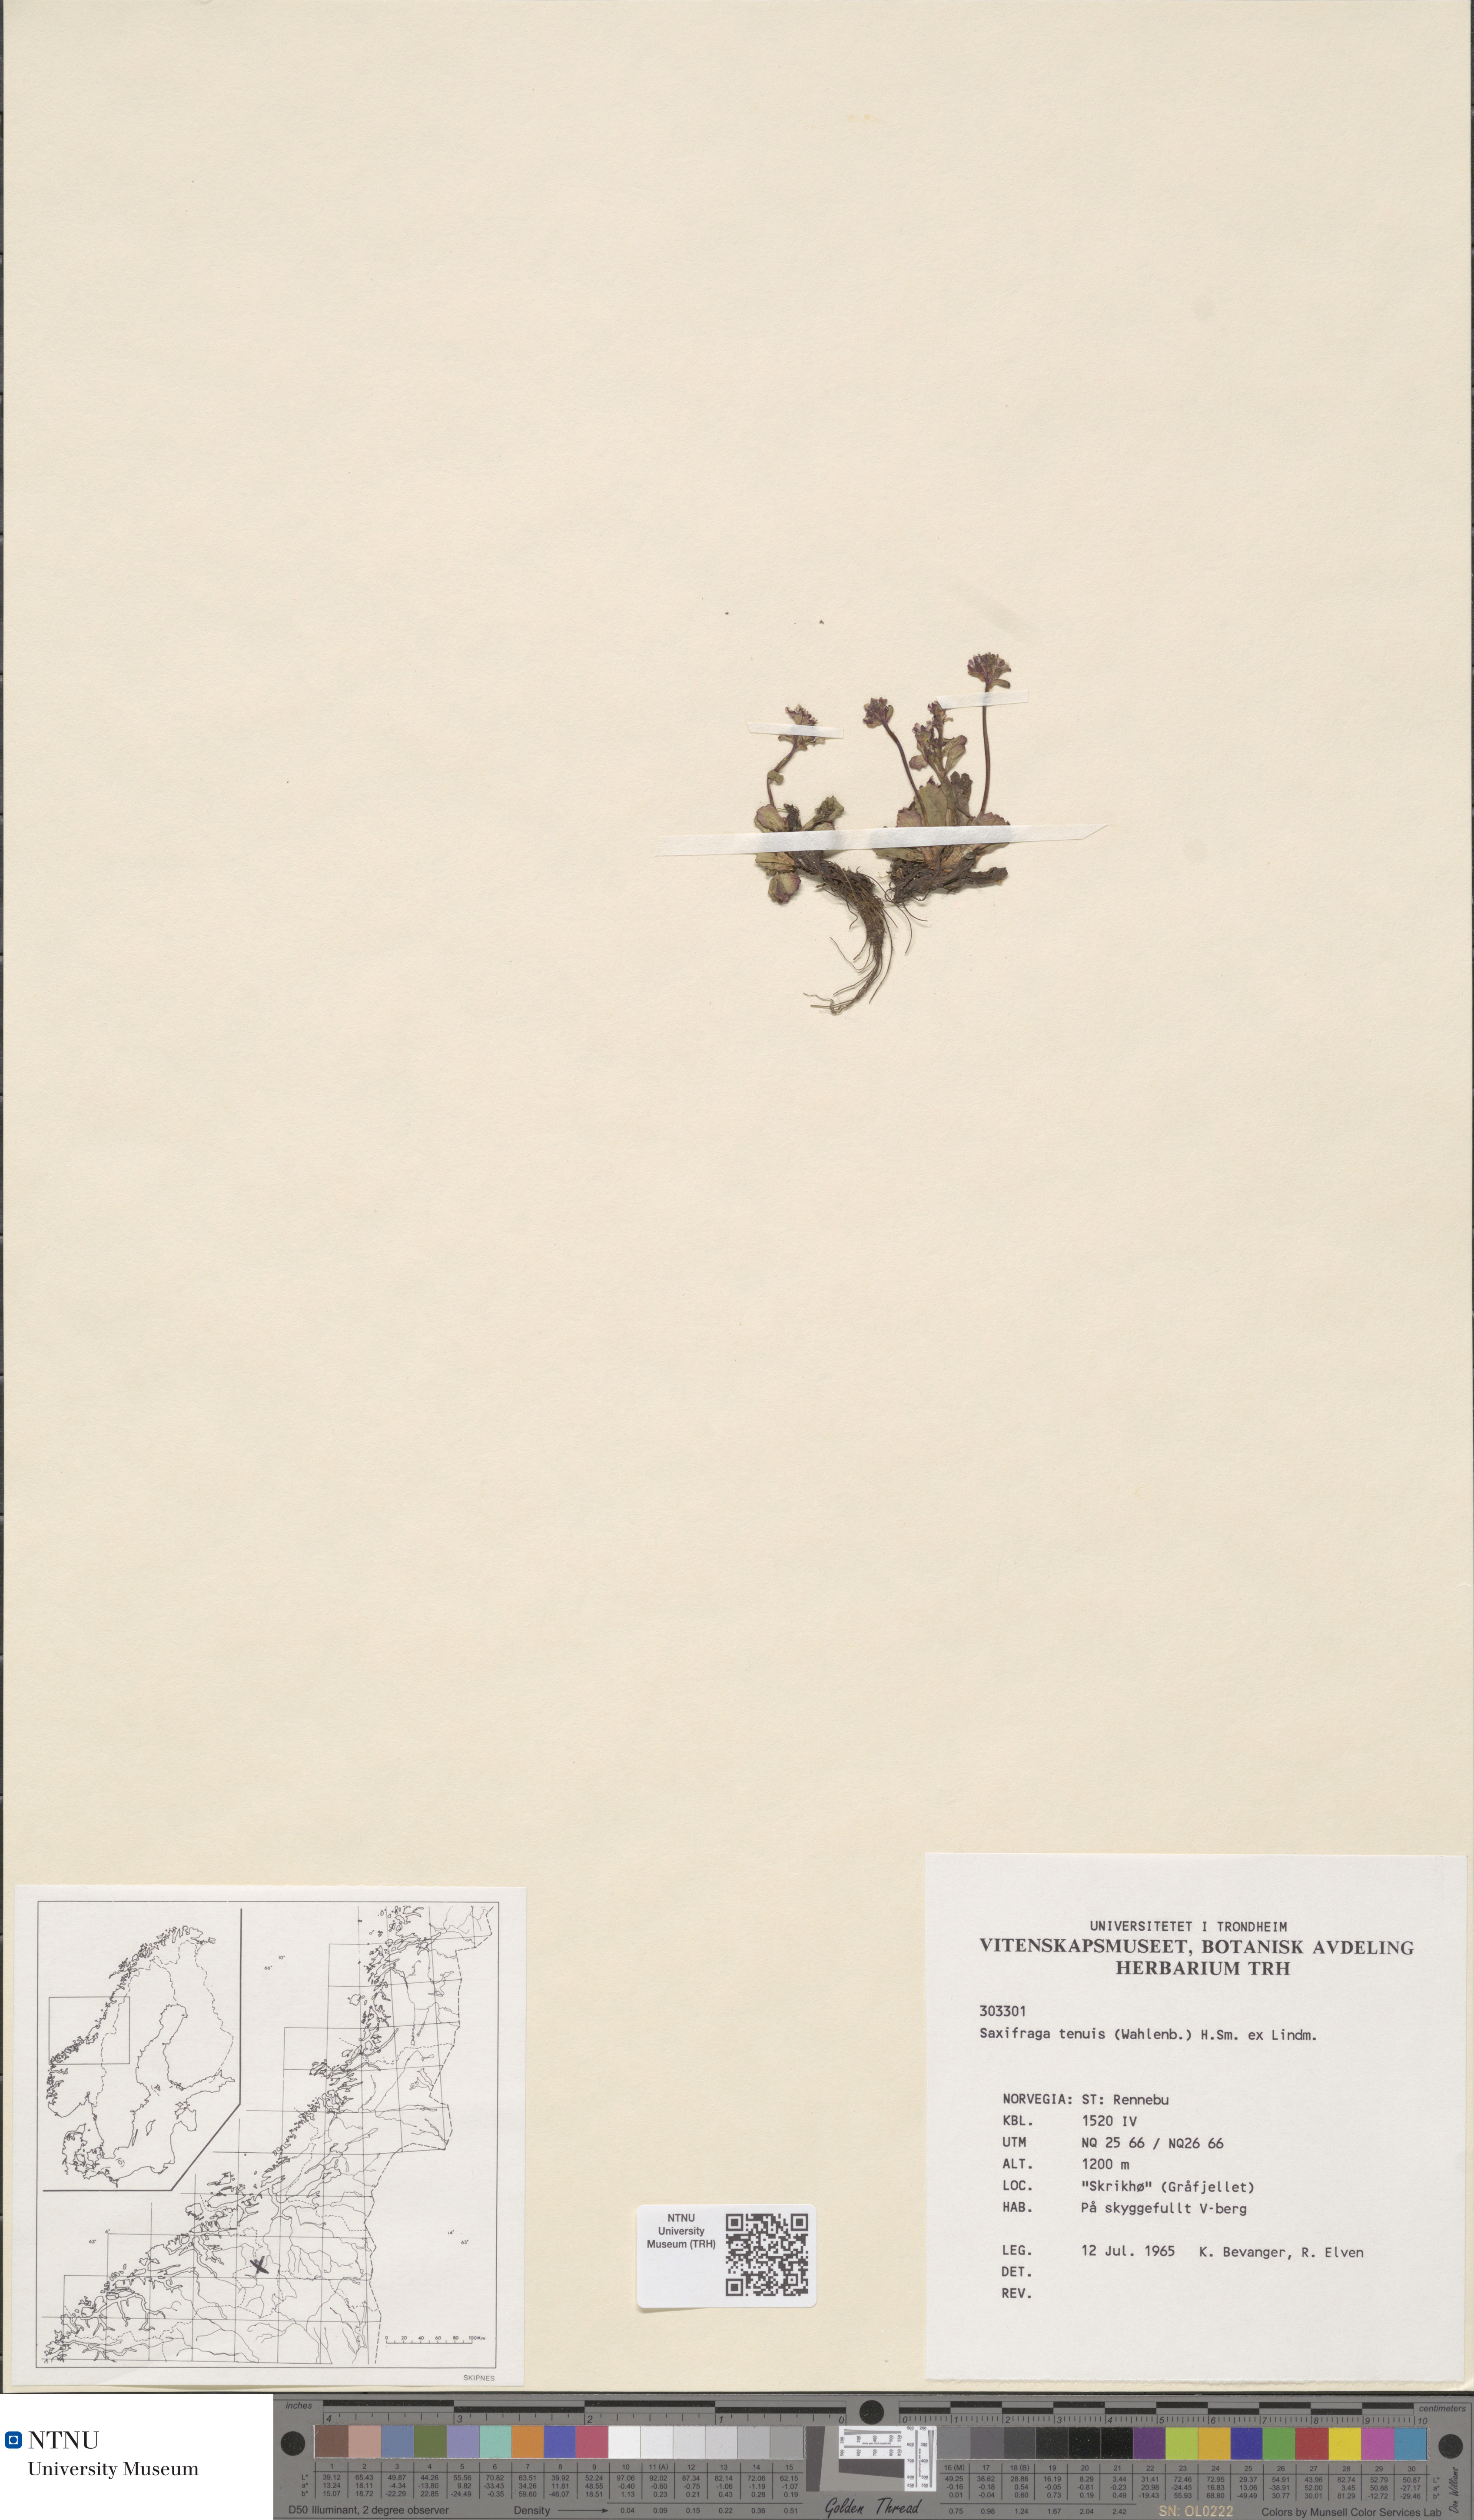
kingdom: Plantae
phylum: Tracheophyta
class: Magnoliopsida
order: Saxifragales
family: Saxifragaceae
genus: Micranthes
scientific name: Micranthes tenuis
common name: Ottertail pass saxifrage
